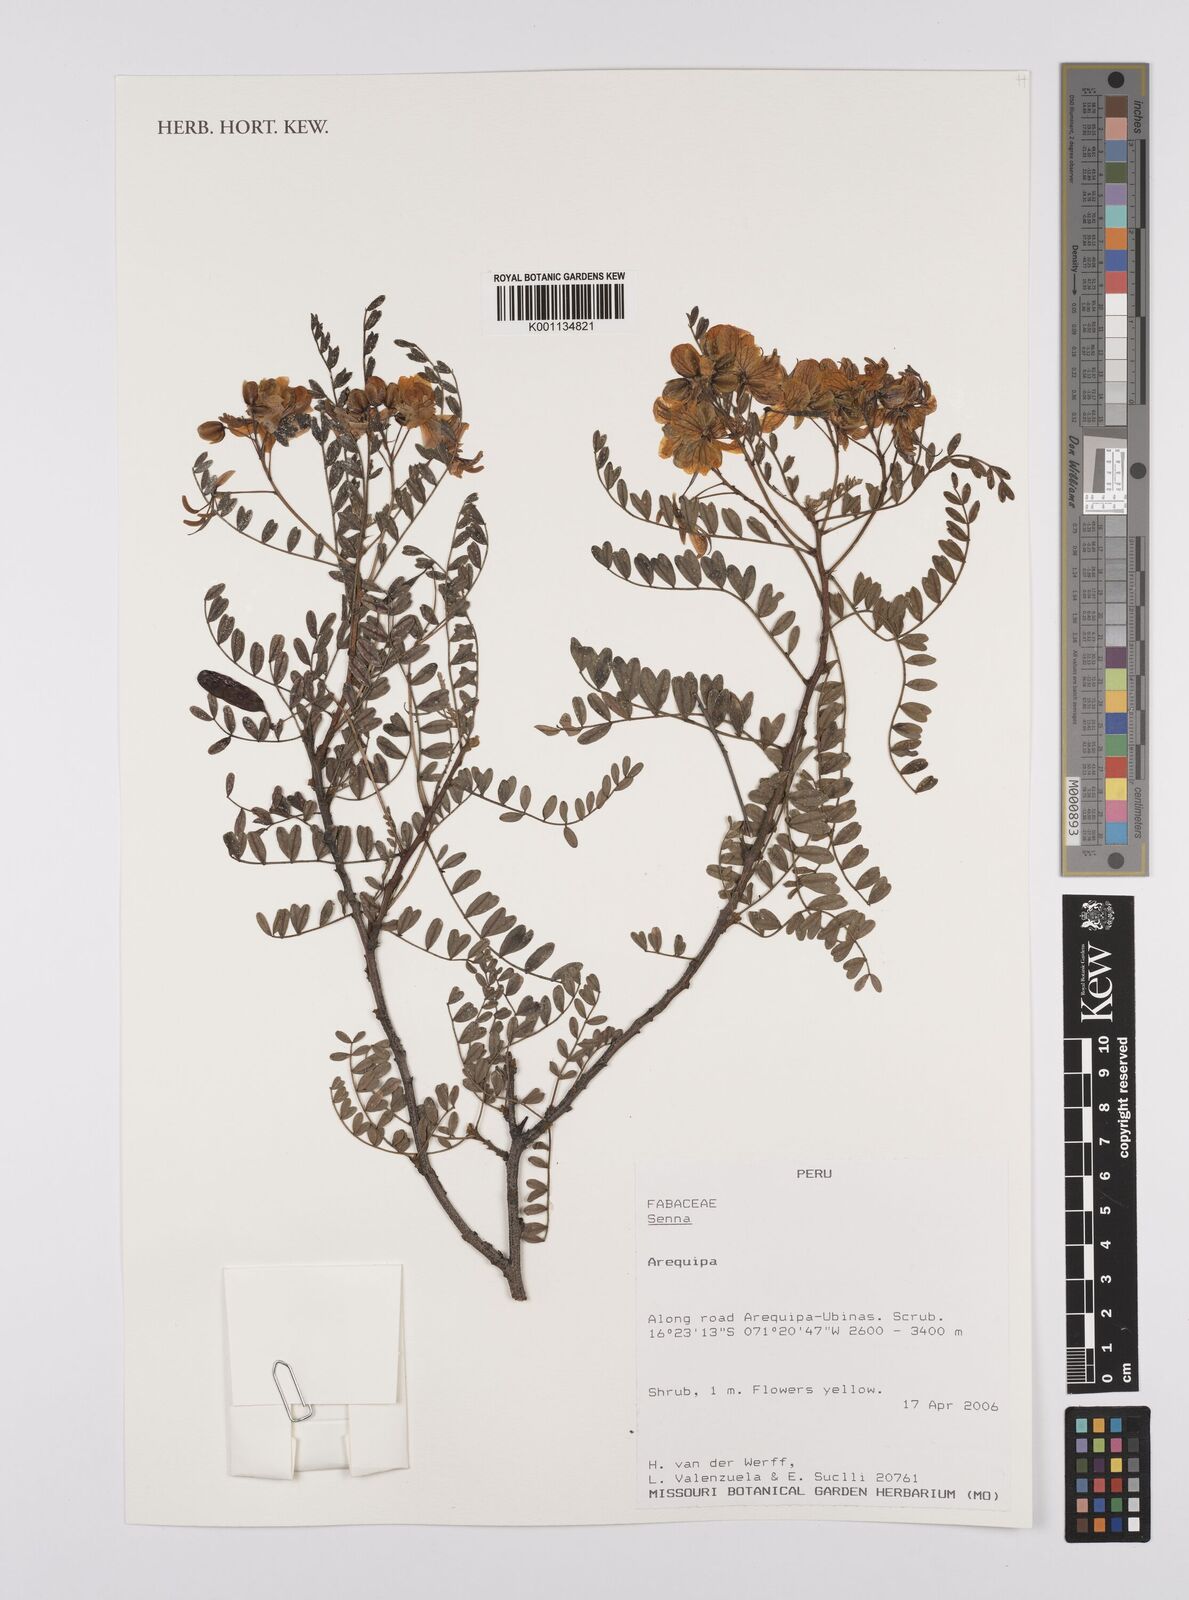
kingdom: Plantae
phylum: Tracheophyta
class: Magnoliopsida
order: Fabales
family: Fabaceae
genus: Senna
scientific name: Senna
